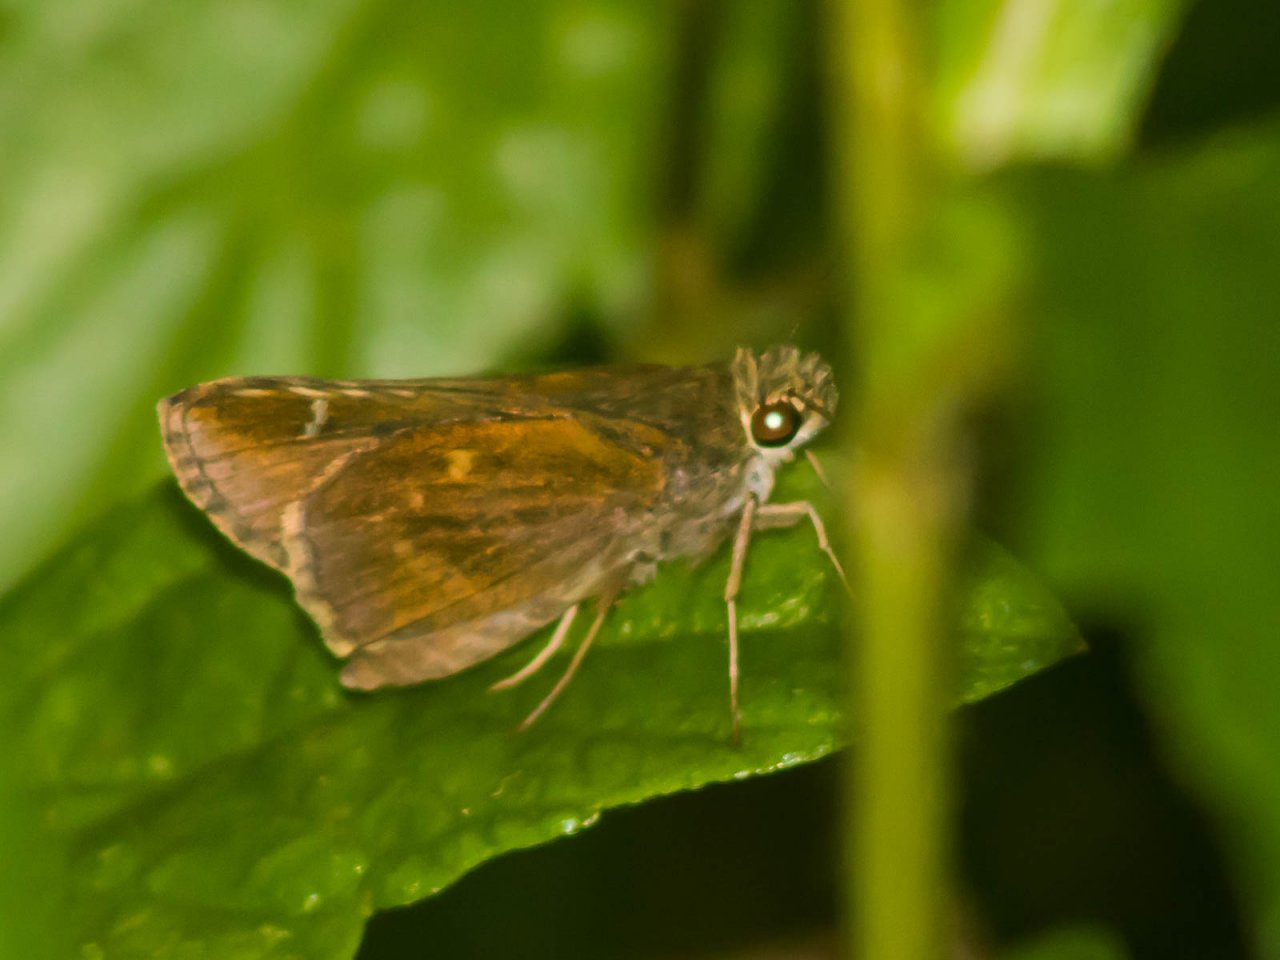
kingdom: Animalia
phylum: Arthropoda
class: Insecta
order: Lepidoptera
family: Hesperiidae
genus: Lerema
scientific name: Lerema accius
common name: Clouded Skipper
